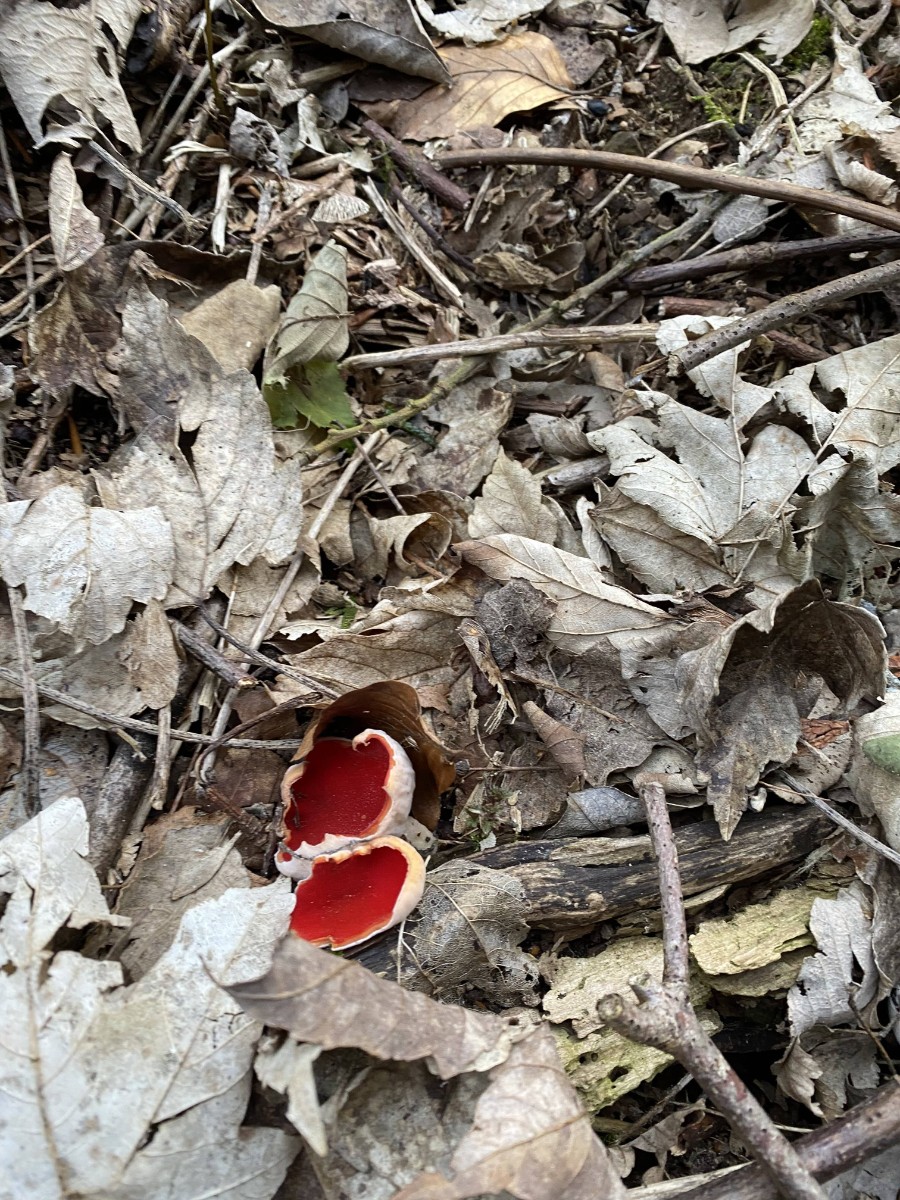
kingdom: Fungi
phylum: Ascomycota
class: Pezizomycetes
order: Pezizales
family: Sarcoscyphaceae
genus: Sarcoscypha
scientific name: Sarcoscypha
